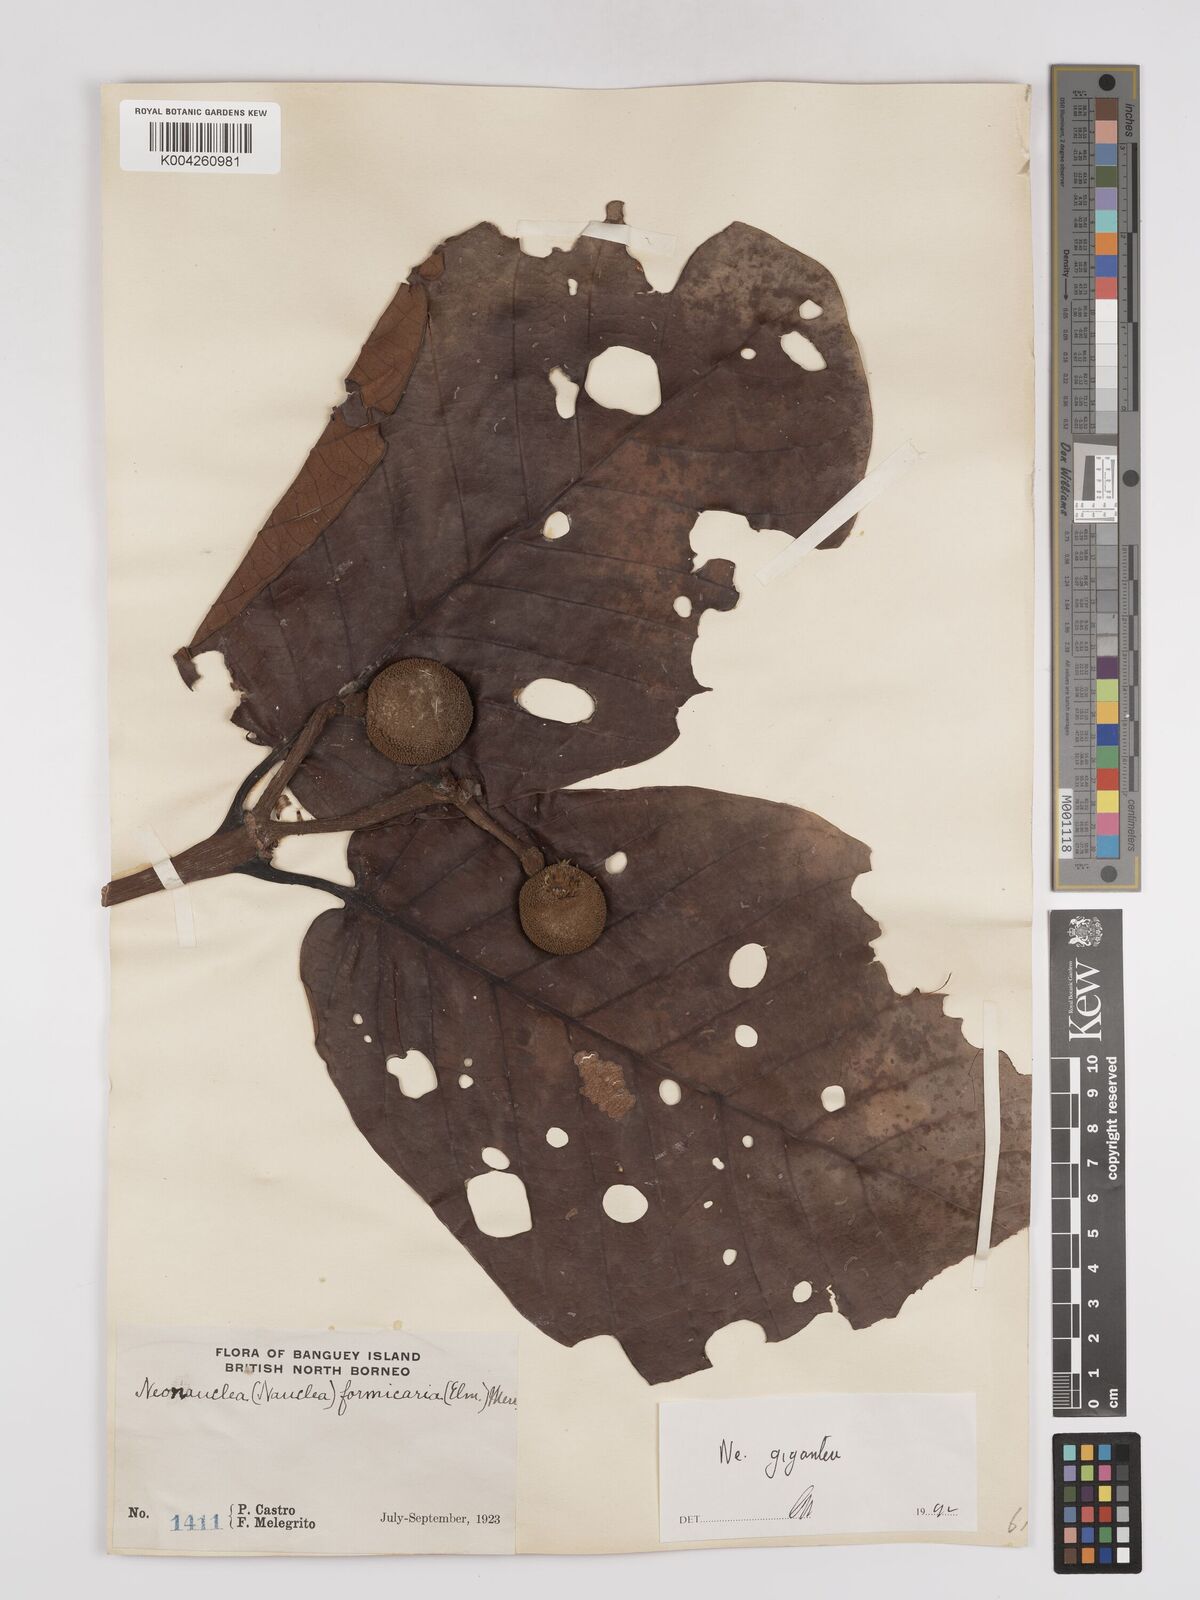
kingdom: Plantae
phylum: Tracheophyta
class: Magnoliopsida
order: Gentianales
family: Rubiaceae
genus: Neonauclea
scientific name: Neonauclea gigantea
